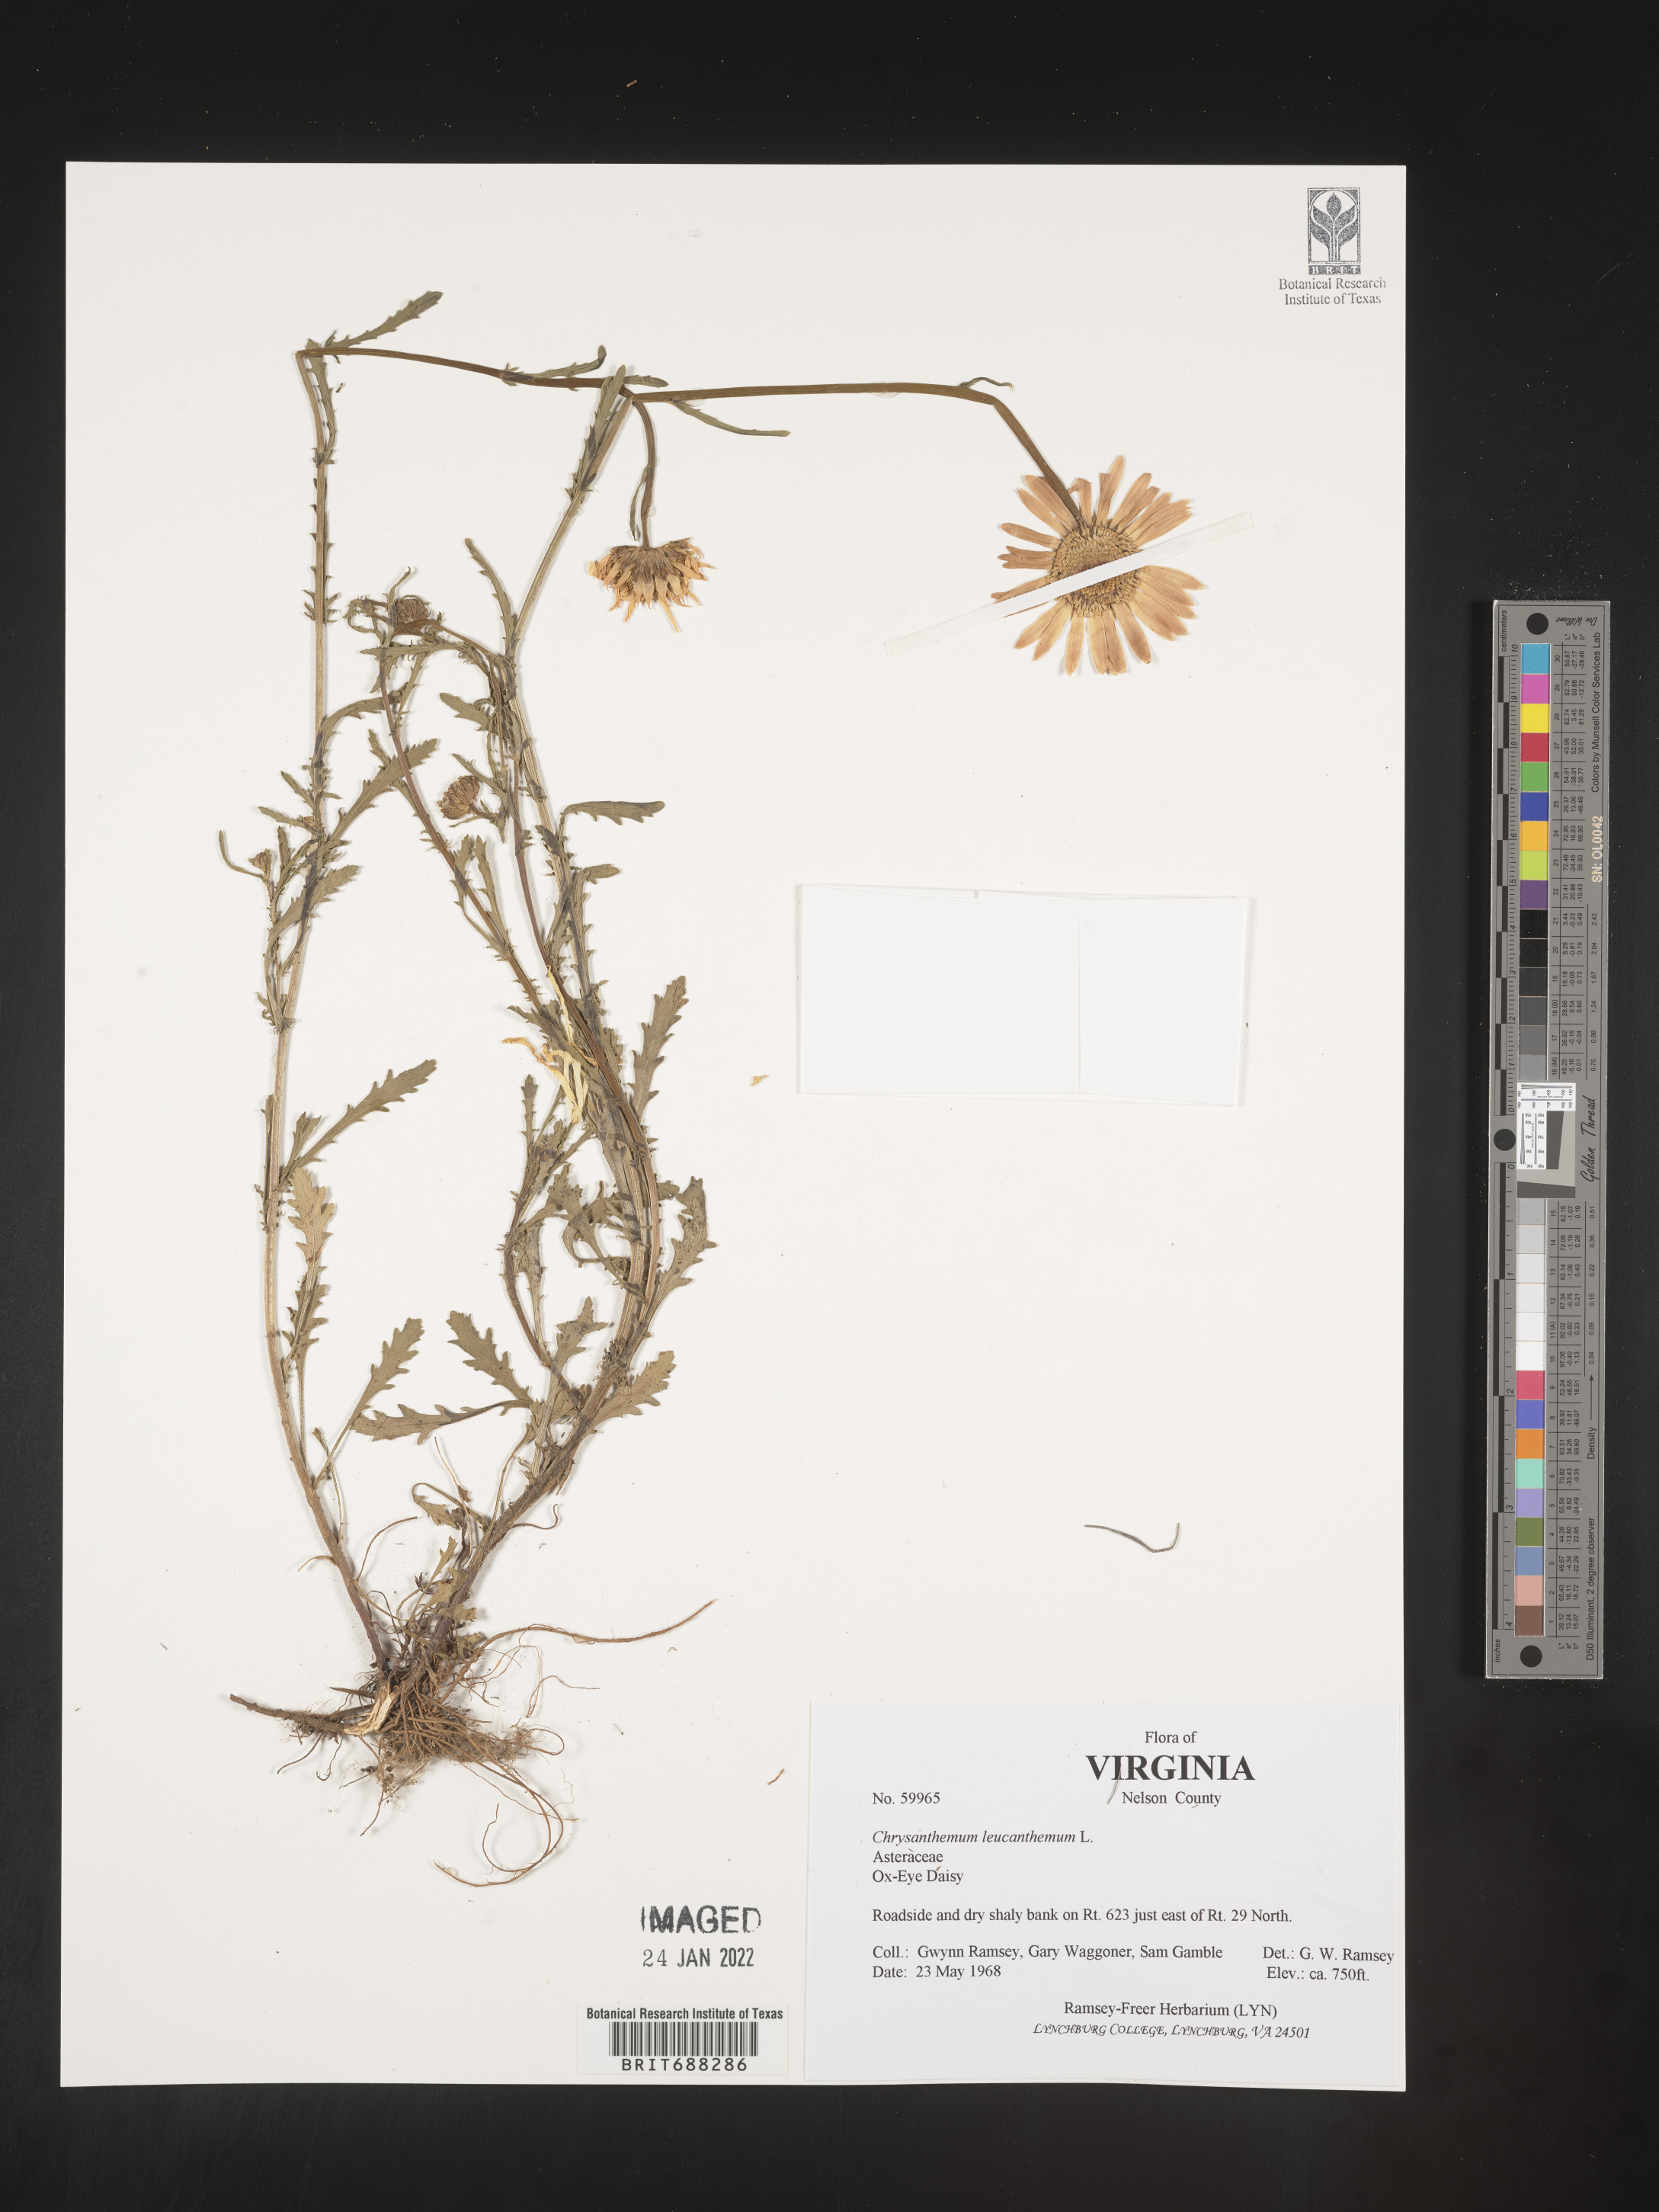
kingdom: Plantae
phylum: Tracheophyta
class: Magnoliopsida
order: Asterales
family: Asteraceae
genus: Chrysanthemum
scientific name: Chrysanthemum
